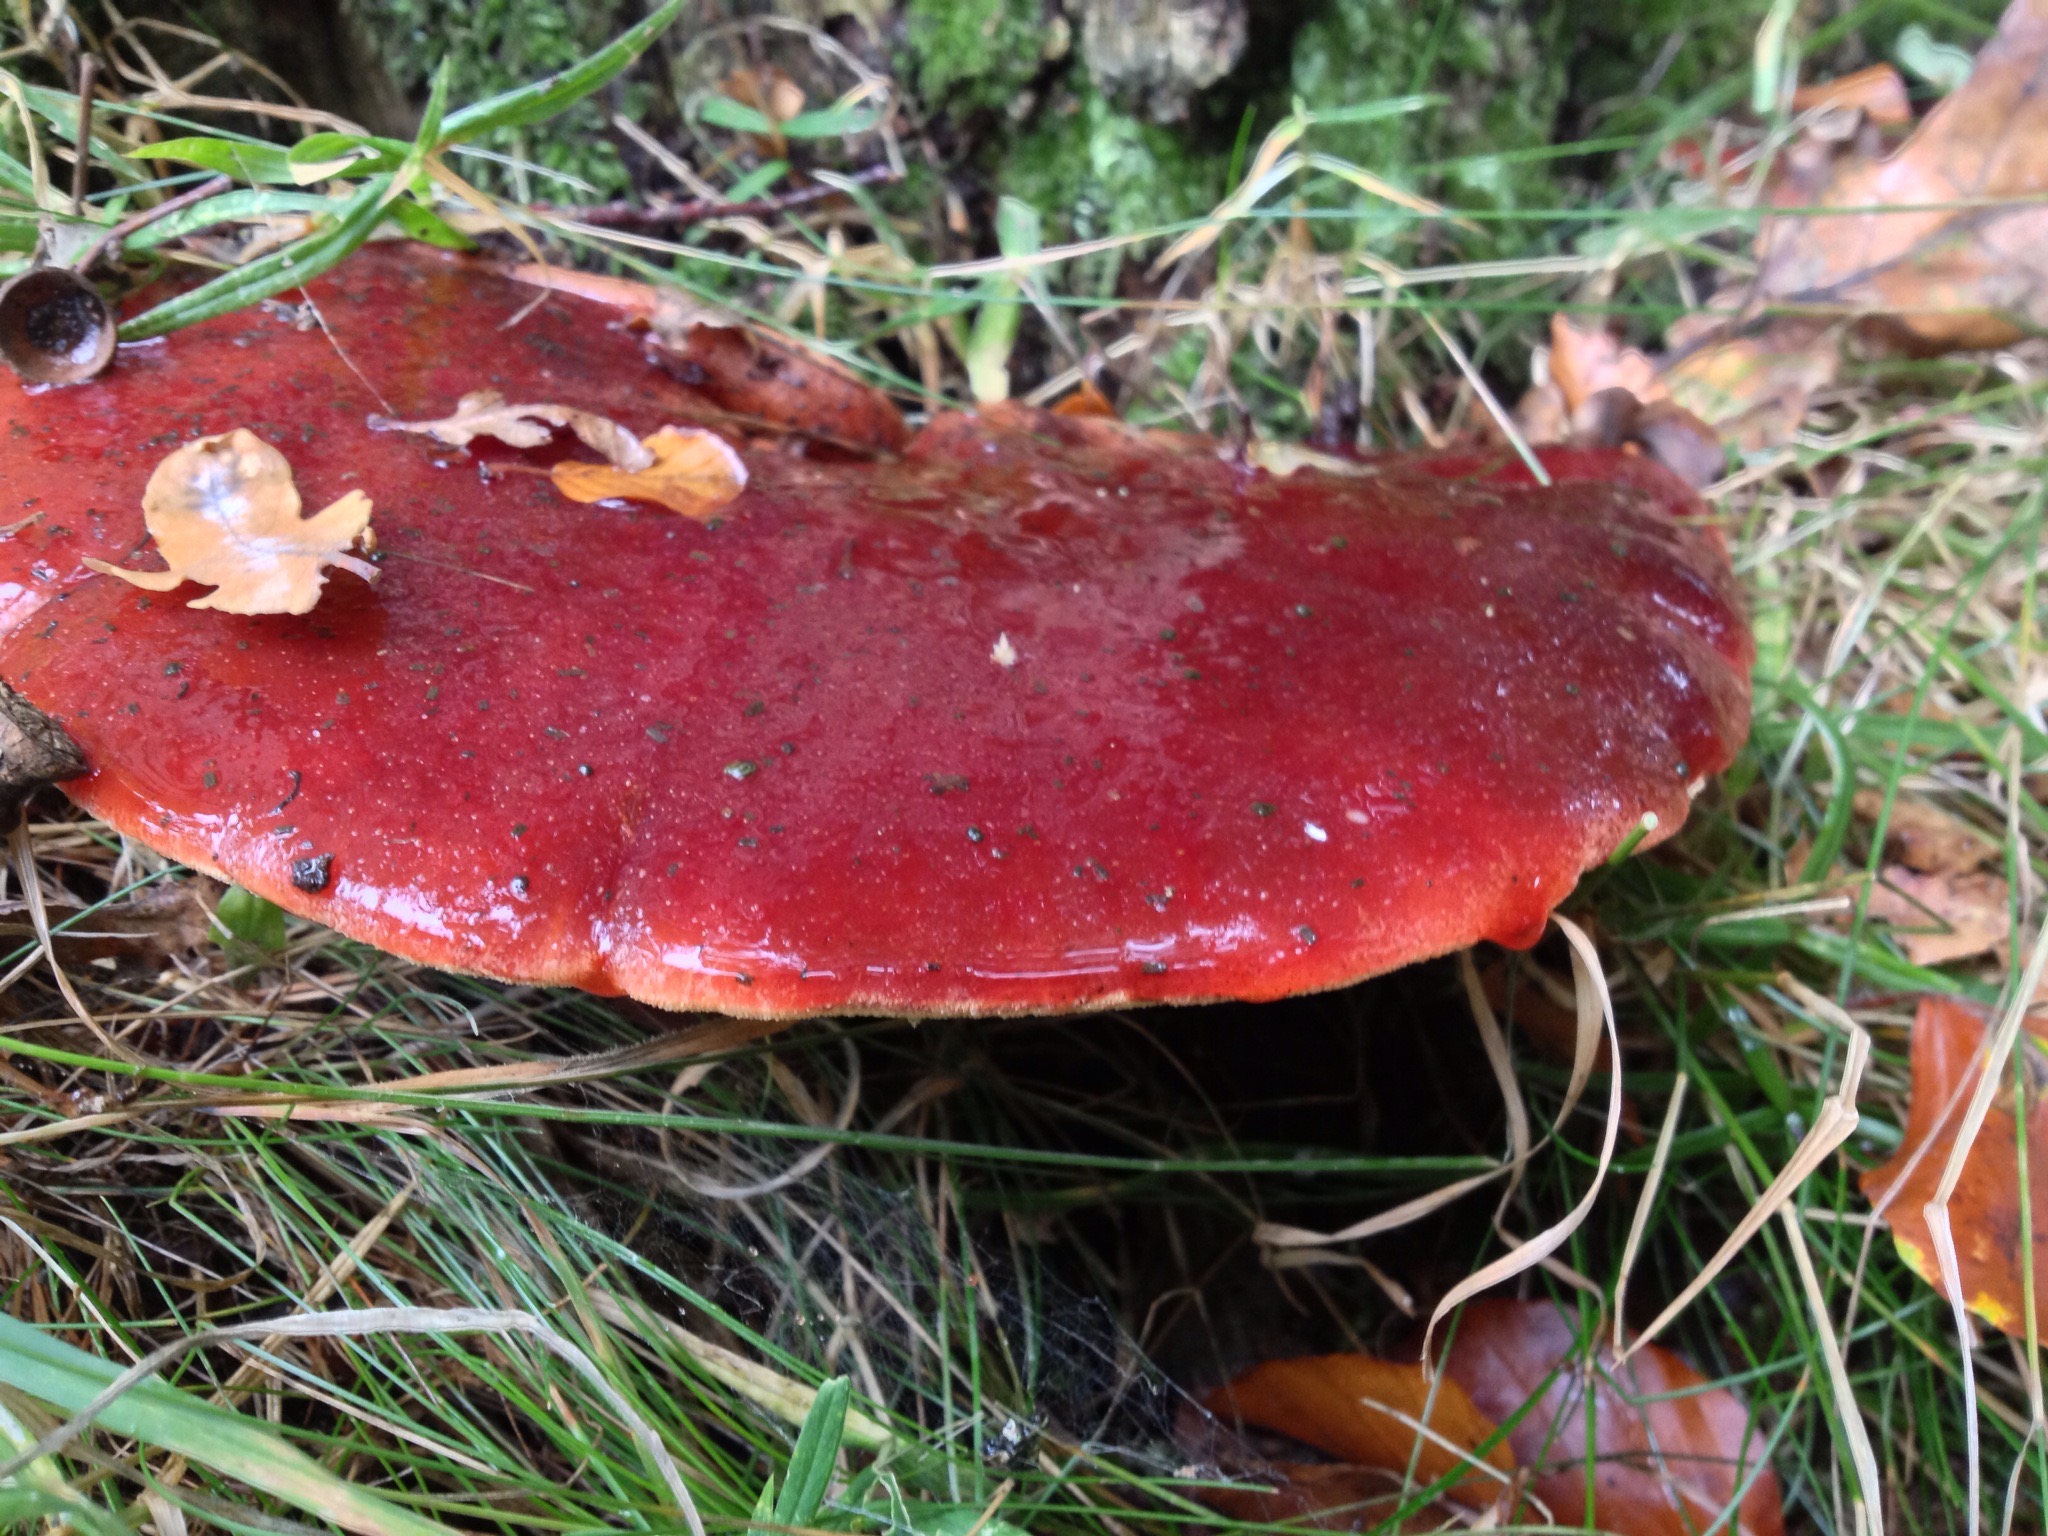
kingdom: Fungi
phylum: Basidiomycota
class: Agaricomycetes
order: Agaricales
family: Fistulinaceae
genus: Fistulina
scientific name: Fistulina hepatica
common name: oksetunge
